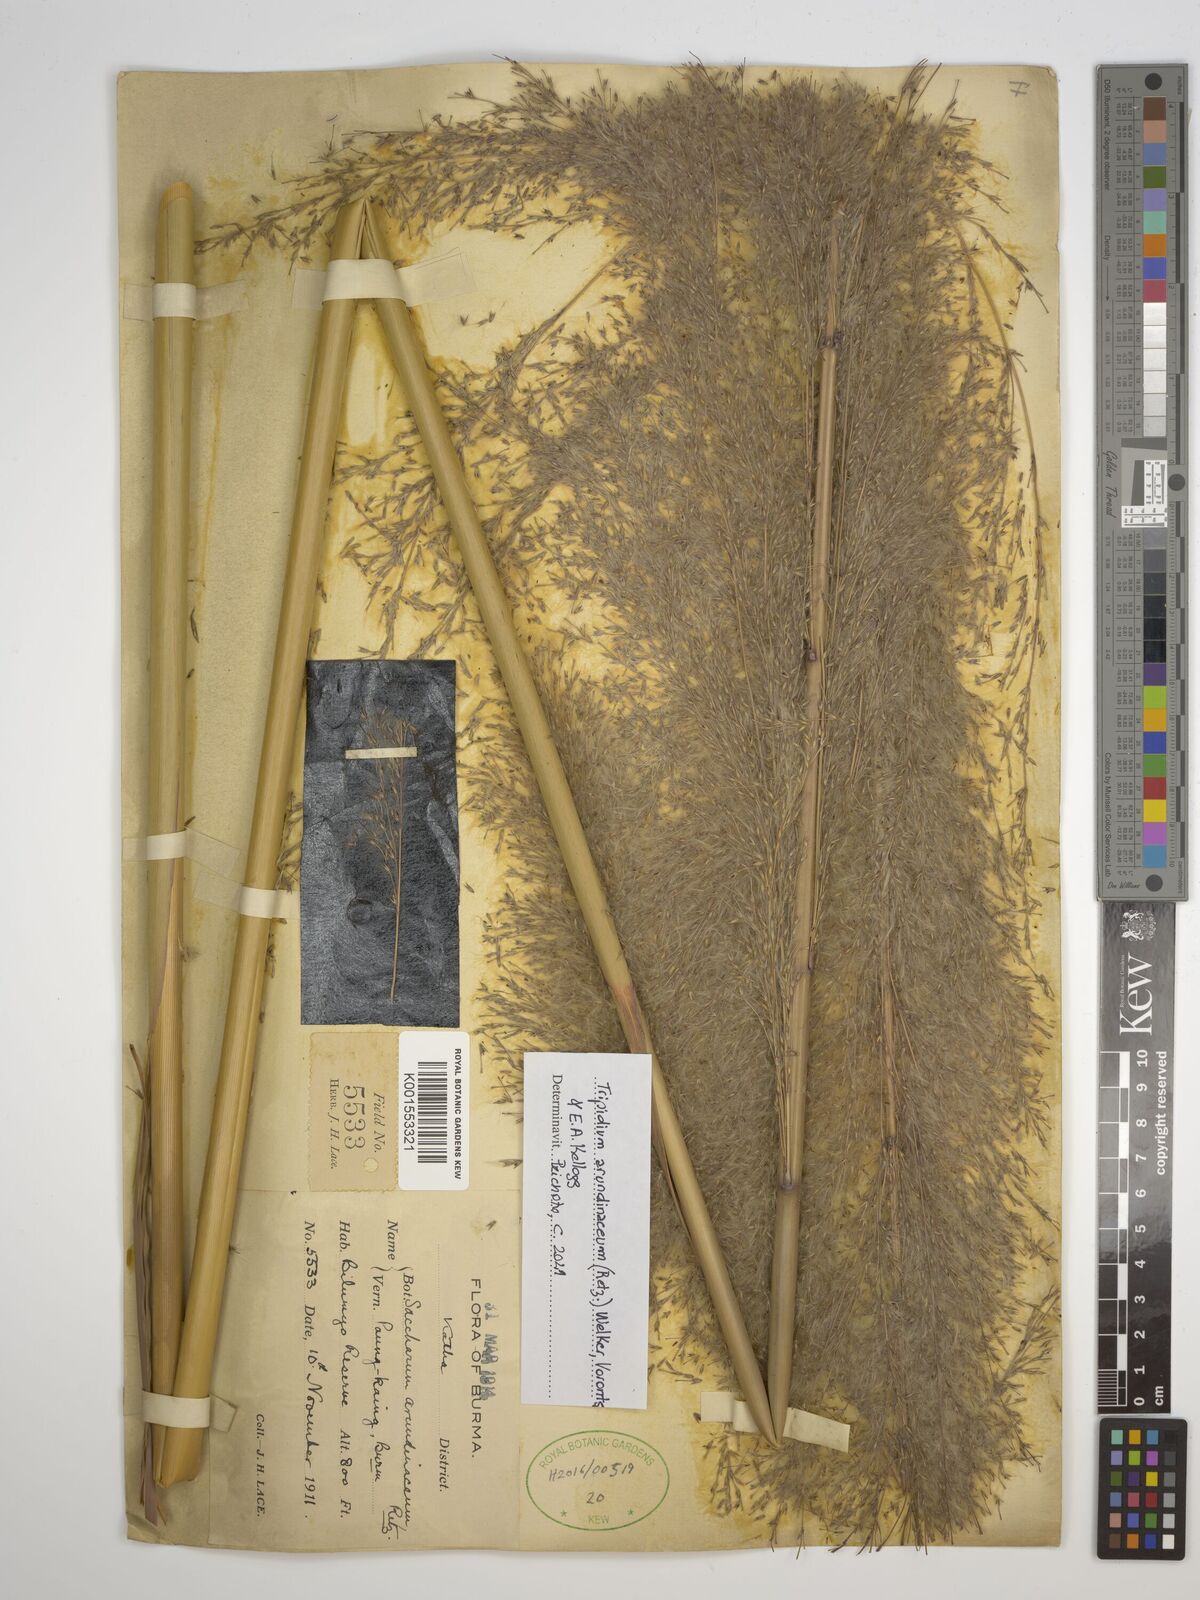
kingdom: Plantae
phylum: Tracheophyta
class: Liliopsida
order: Poales
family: Poaceae
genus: Tripidium
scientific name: Tripidium arundinaceum
